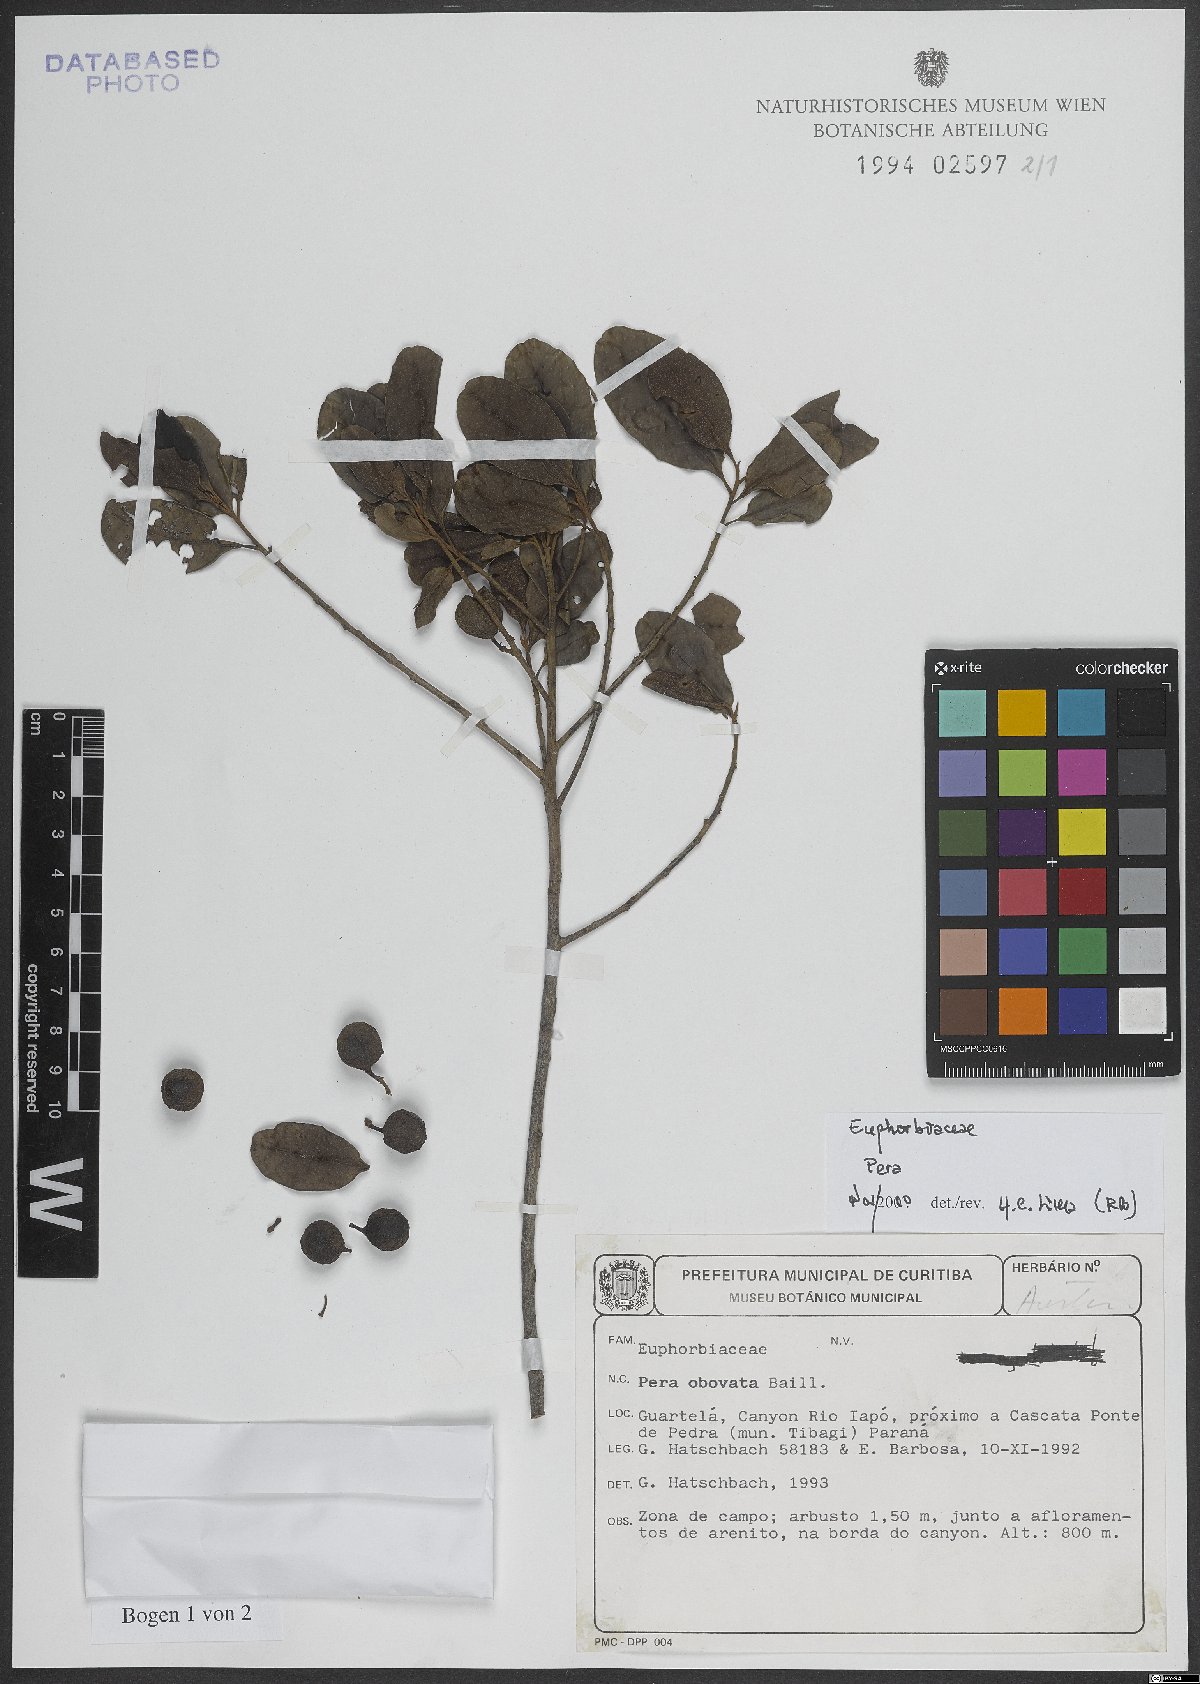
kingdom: Plantae
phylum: Tracheophyta
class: Magnoliopsida
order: Malpighiales
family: Peraceae
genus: Pera
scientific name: Pera
